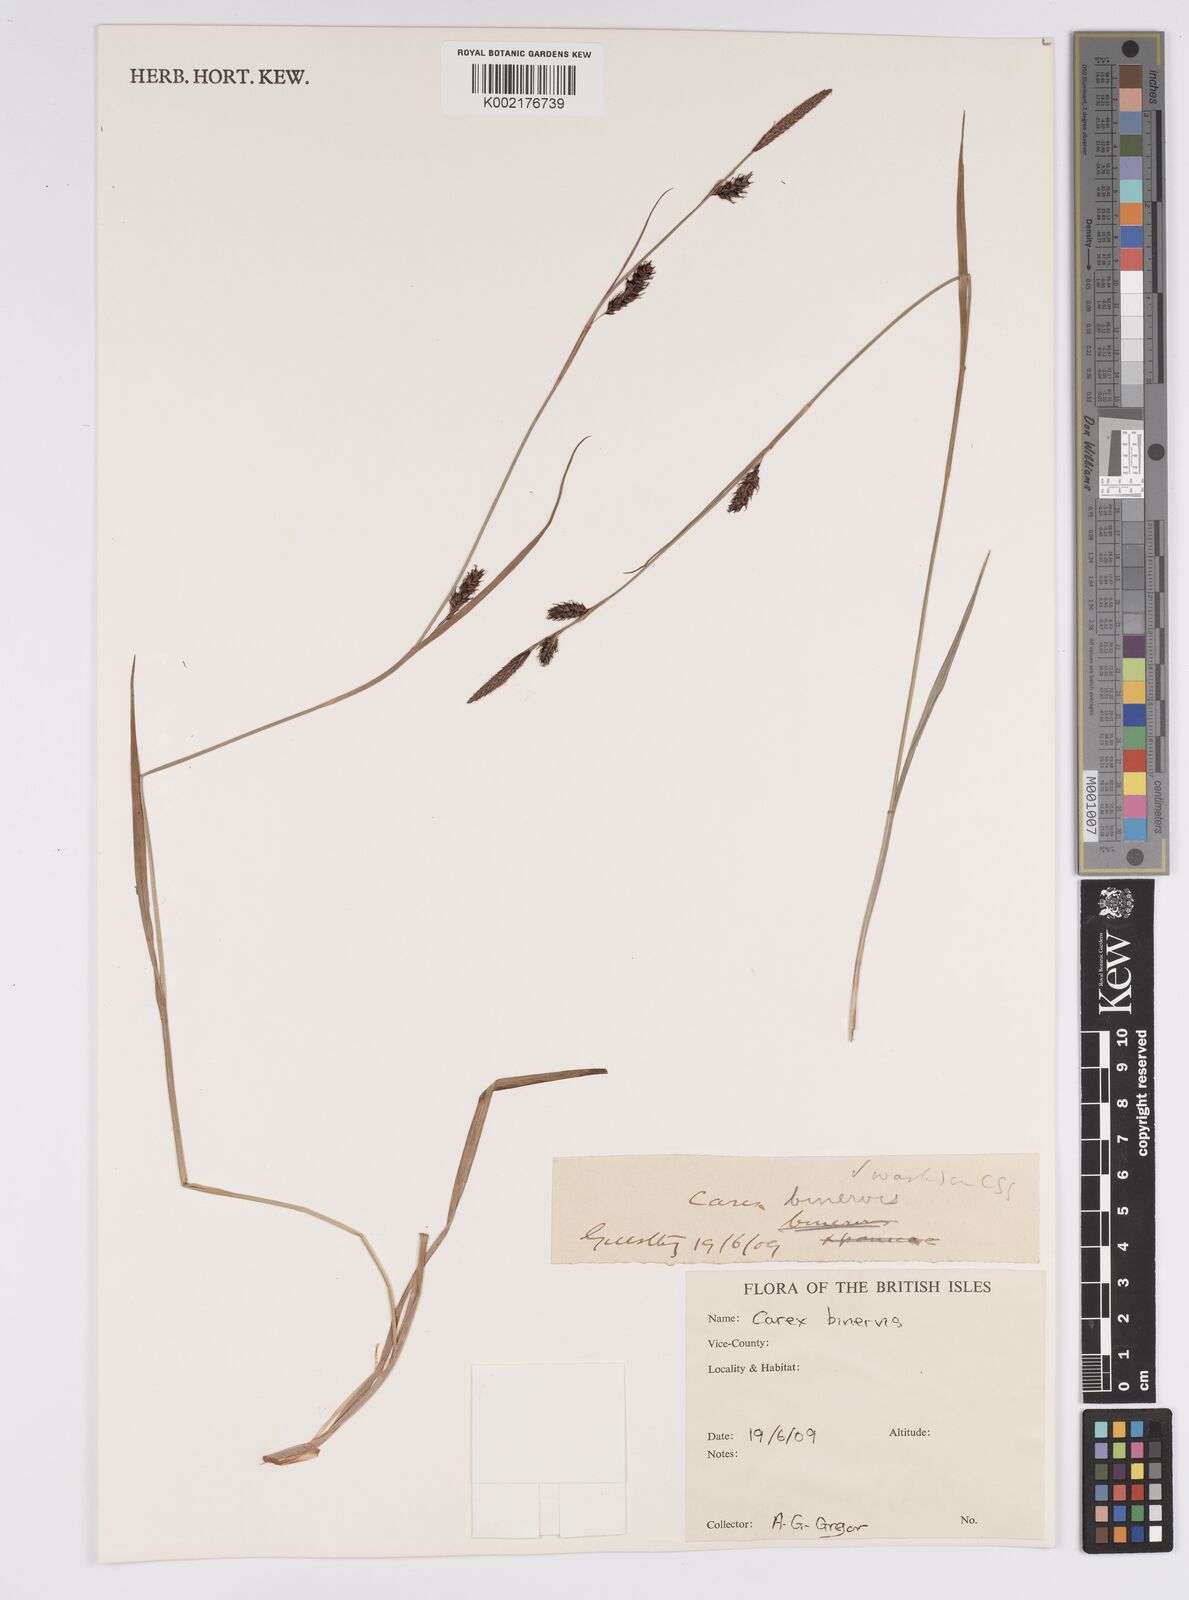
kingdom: Plantae
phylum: Tracheophyta
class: Liliopsida
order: Poales
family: Cyperaceae
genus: Carex
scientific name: Carex binervis
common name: Green-ribbed sedge
